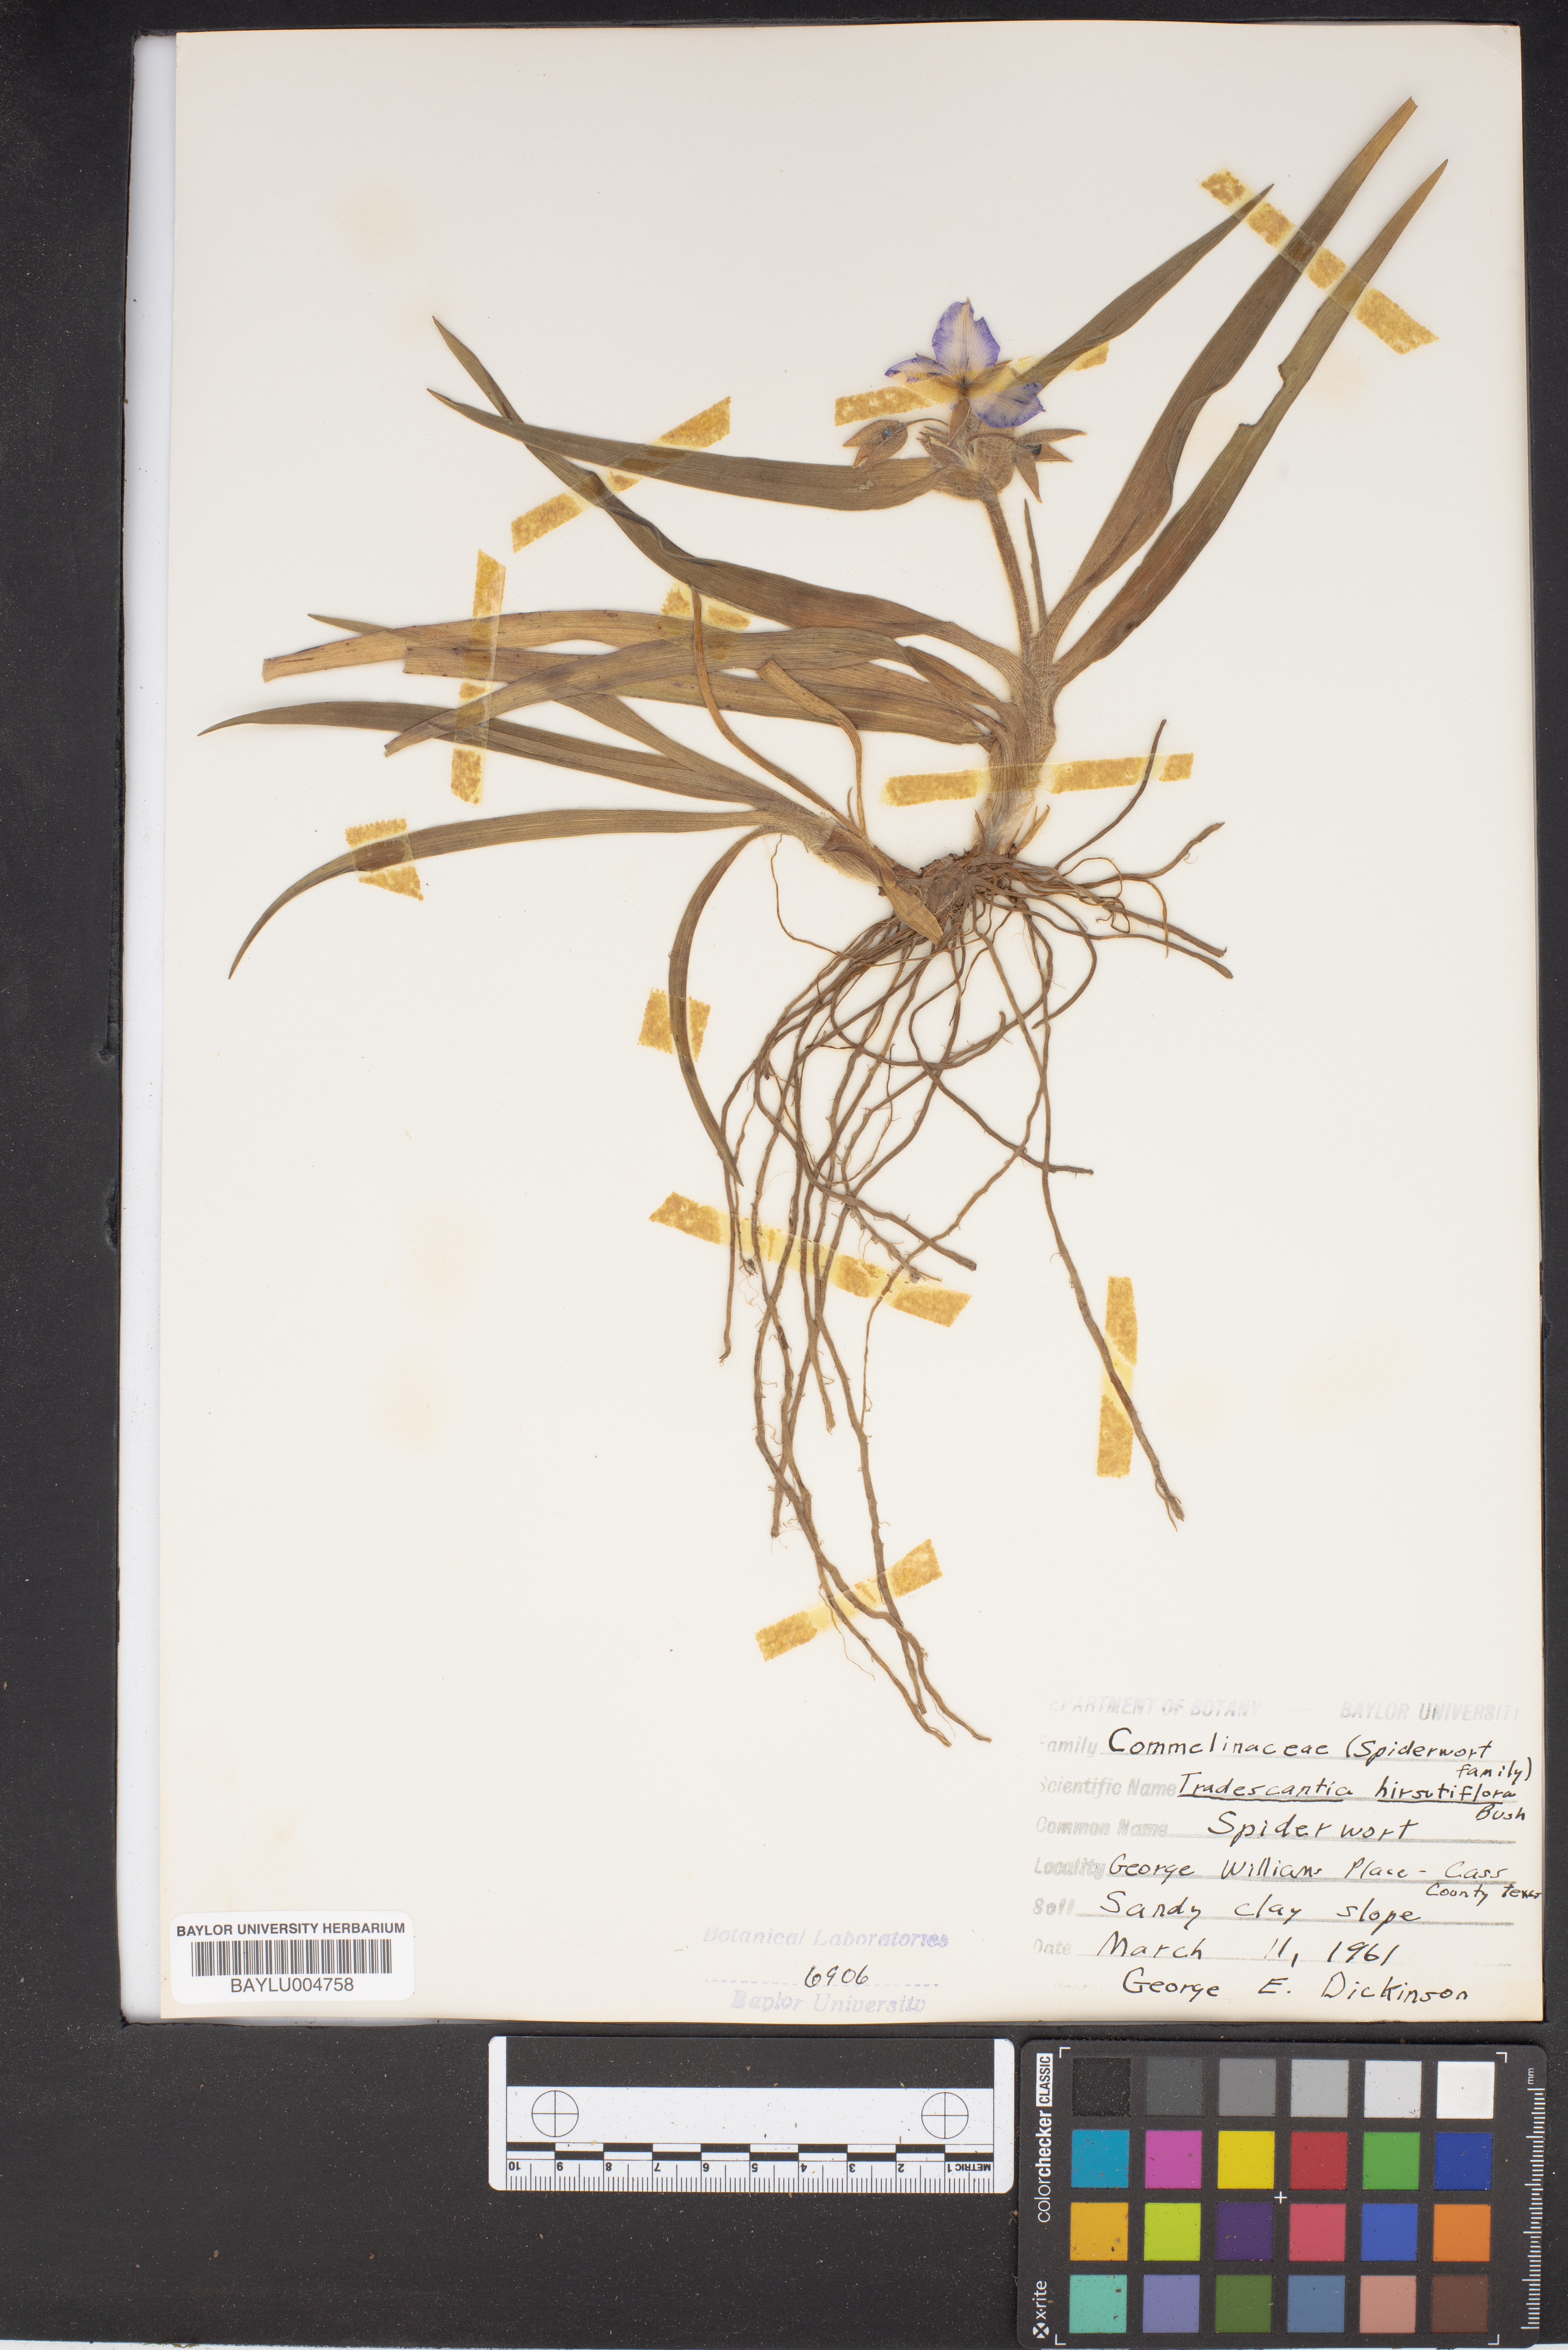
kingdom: Plantae
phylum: Tracheophyta
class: Liliopsida
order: Commelinales
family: Commelinaceae
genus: Tradescantia
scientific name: Tradescantia hirsutiflora
